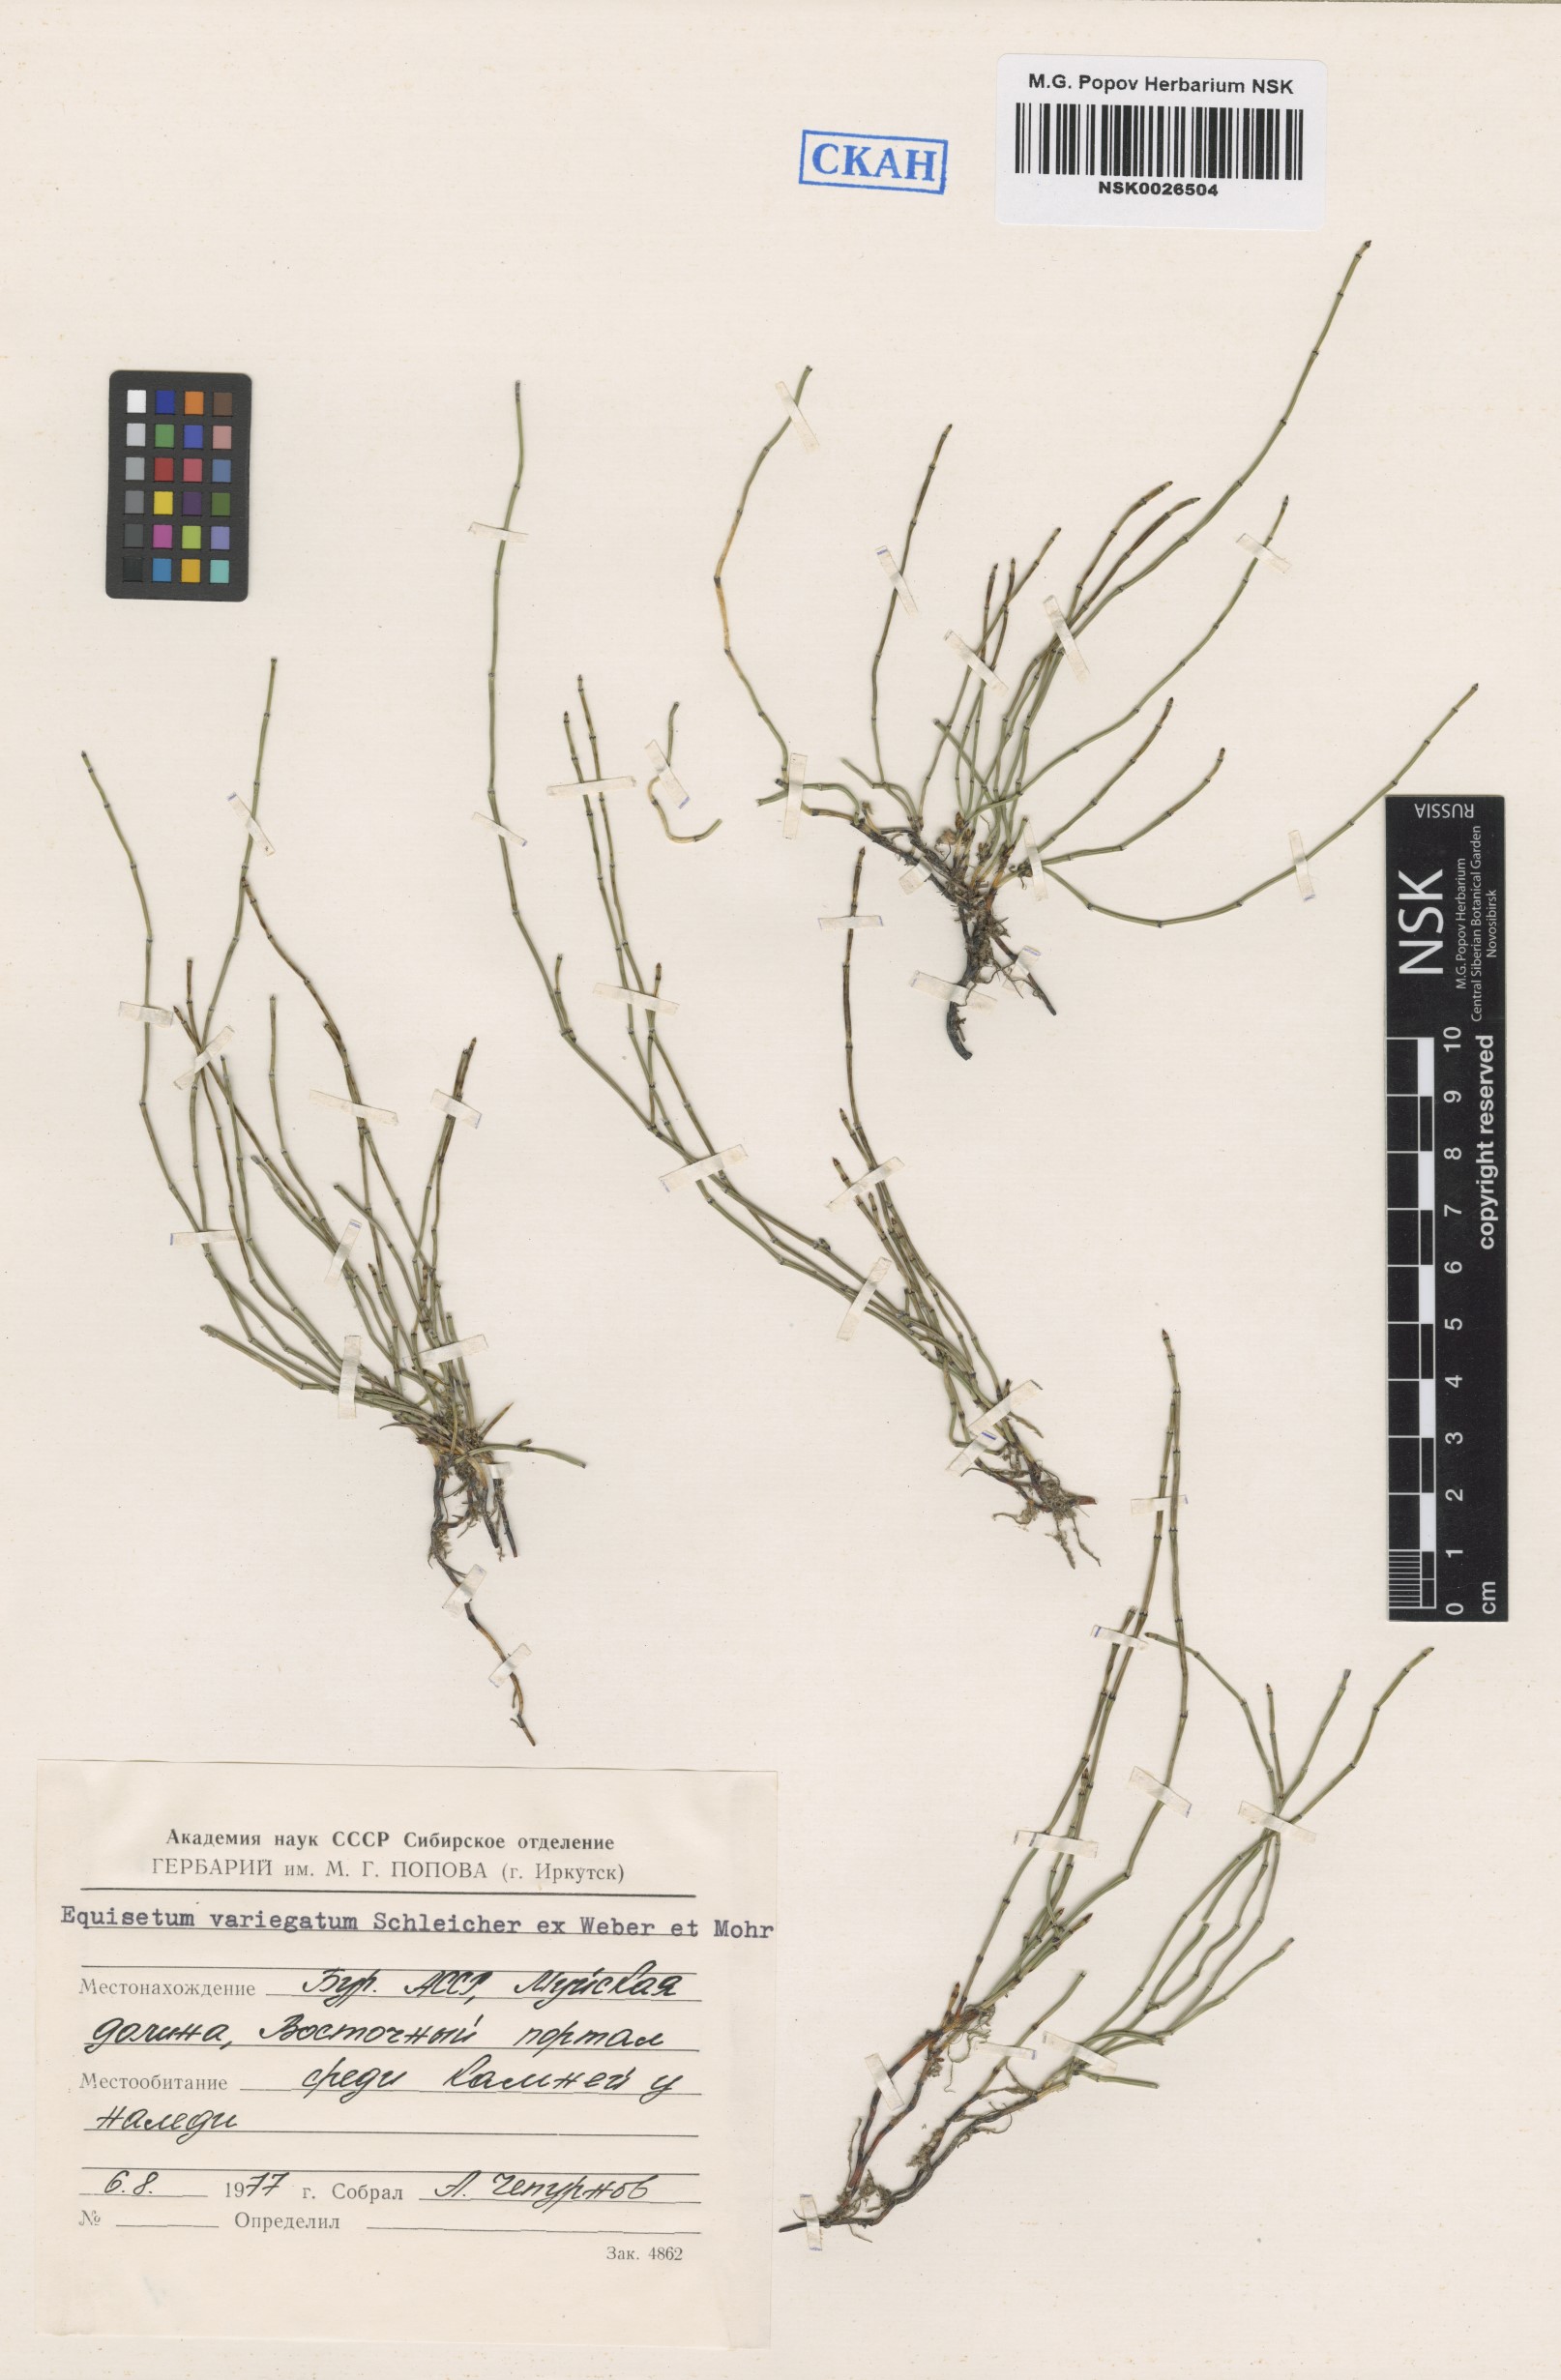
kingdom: Plantae
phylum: Tracheophyta
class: Polypodiopsida
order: Equisetales
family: Equisetaceae
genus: Equisetum
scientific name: Equisetum variegatum
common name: Variegated horsetail
